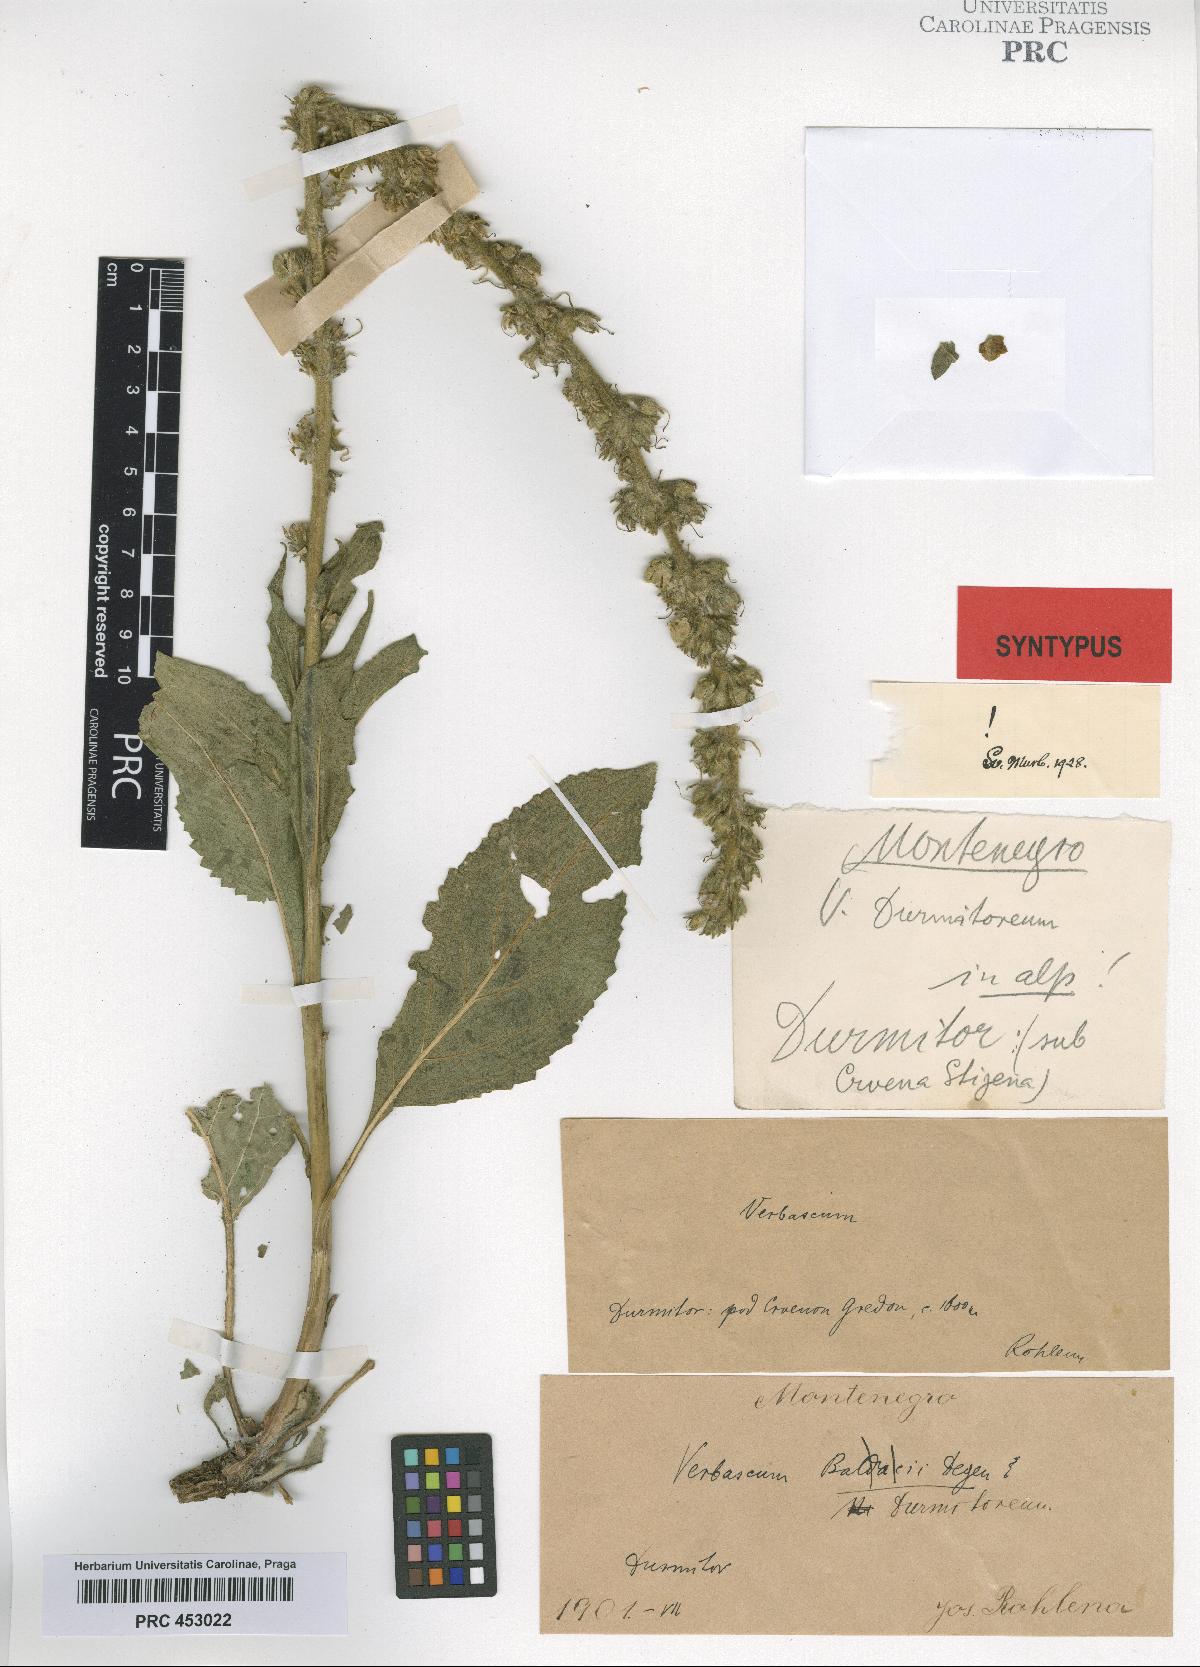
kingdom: Plantae
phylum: Tracheophyta
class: Magnoliopsida
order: Lamiales
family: Scrophulariaceae
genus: Verbascum
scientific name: Verbascum durmitoreum
